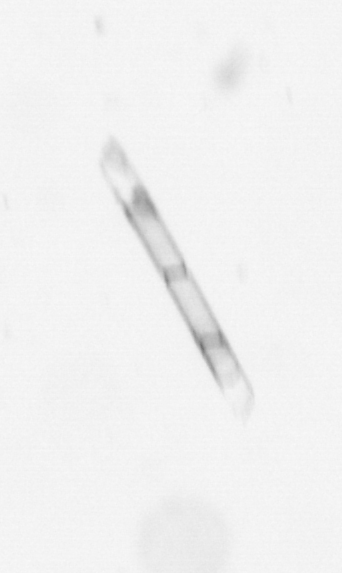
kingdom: Chromista
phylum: Ochrophyta
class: Bacillariophyceae
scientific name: Bacillariophyceae
